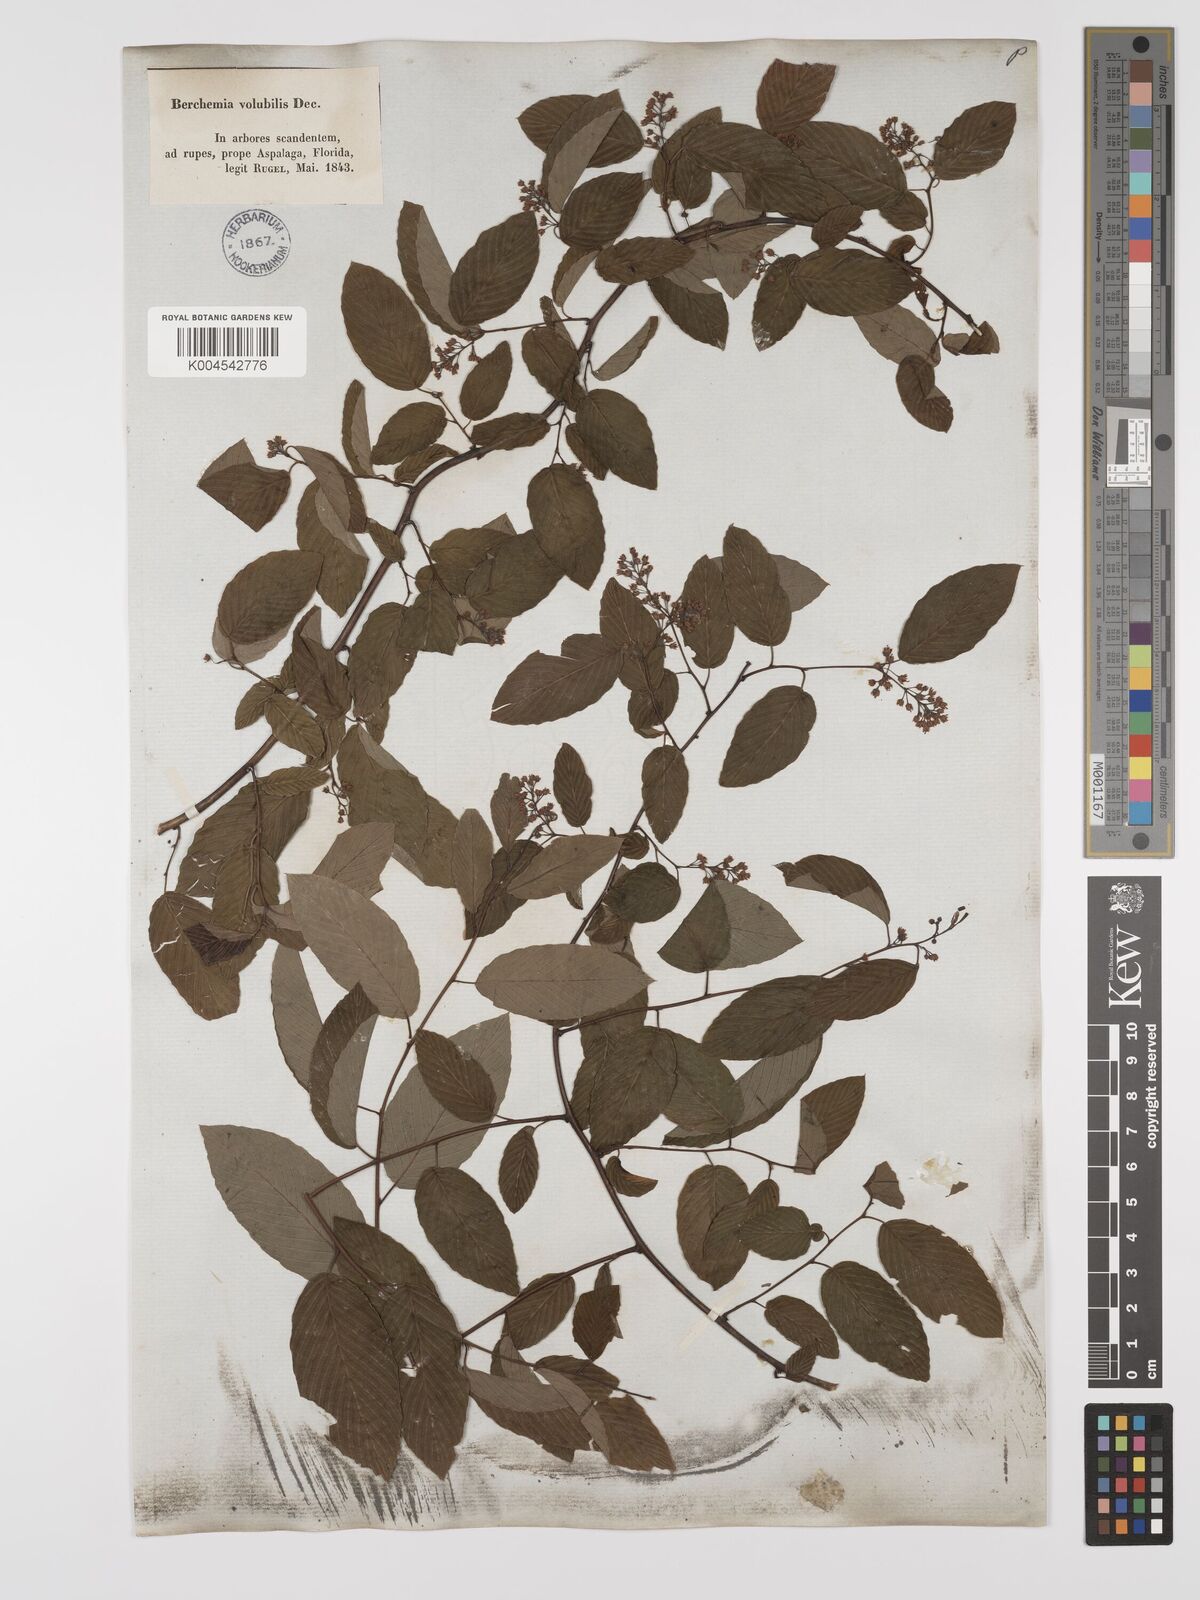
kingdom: Plantae
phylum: Tracheophyta
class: Magnoliopsida
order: Rosales
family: Rhamnaceae
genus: Berchemia
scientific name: Berchemia scandens
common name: Supplejack
